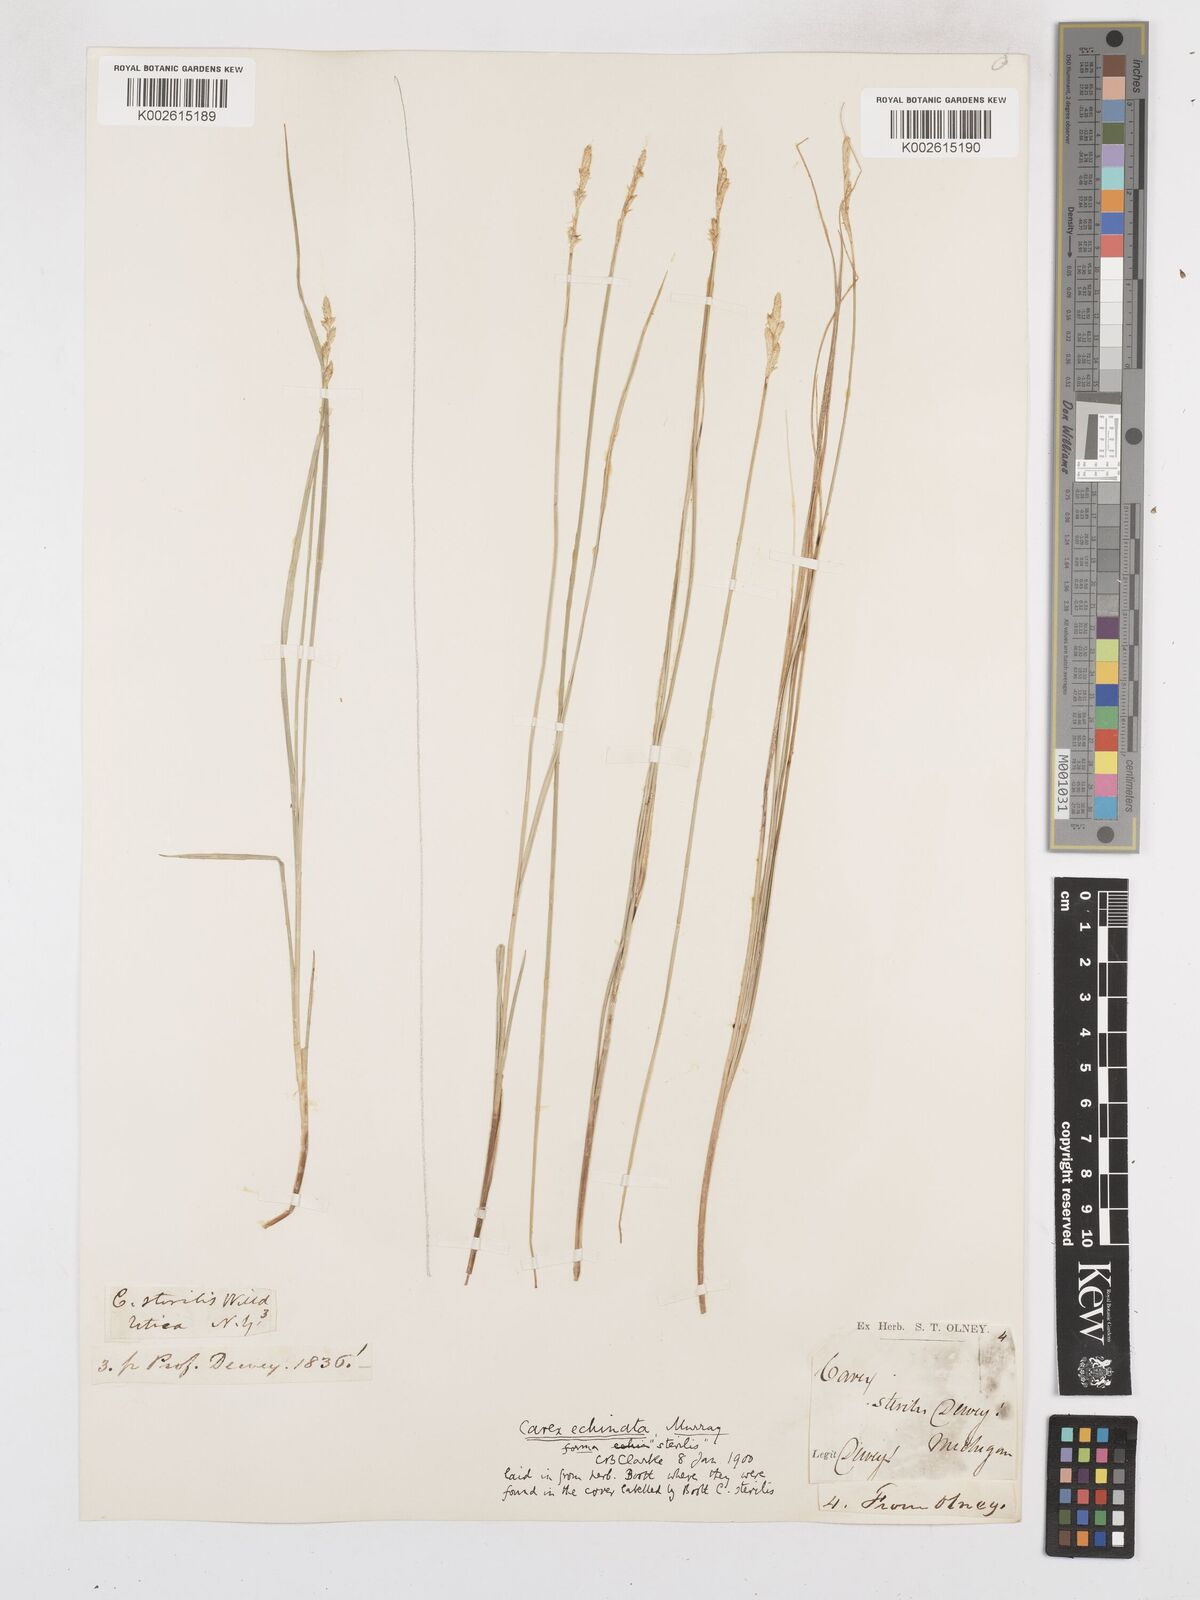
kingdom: Plantae
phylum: Tracheophyta
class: Liliopsida
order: Poales
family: Cyperaceae
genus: Carex
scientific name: Carex echinata
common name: Star sedge
